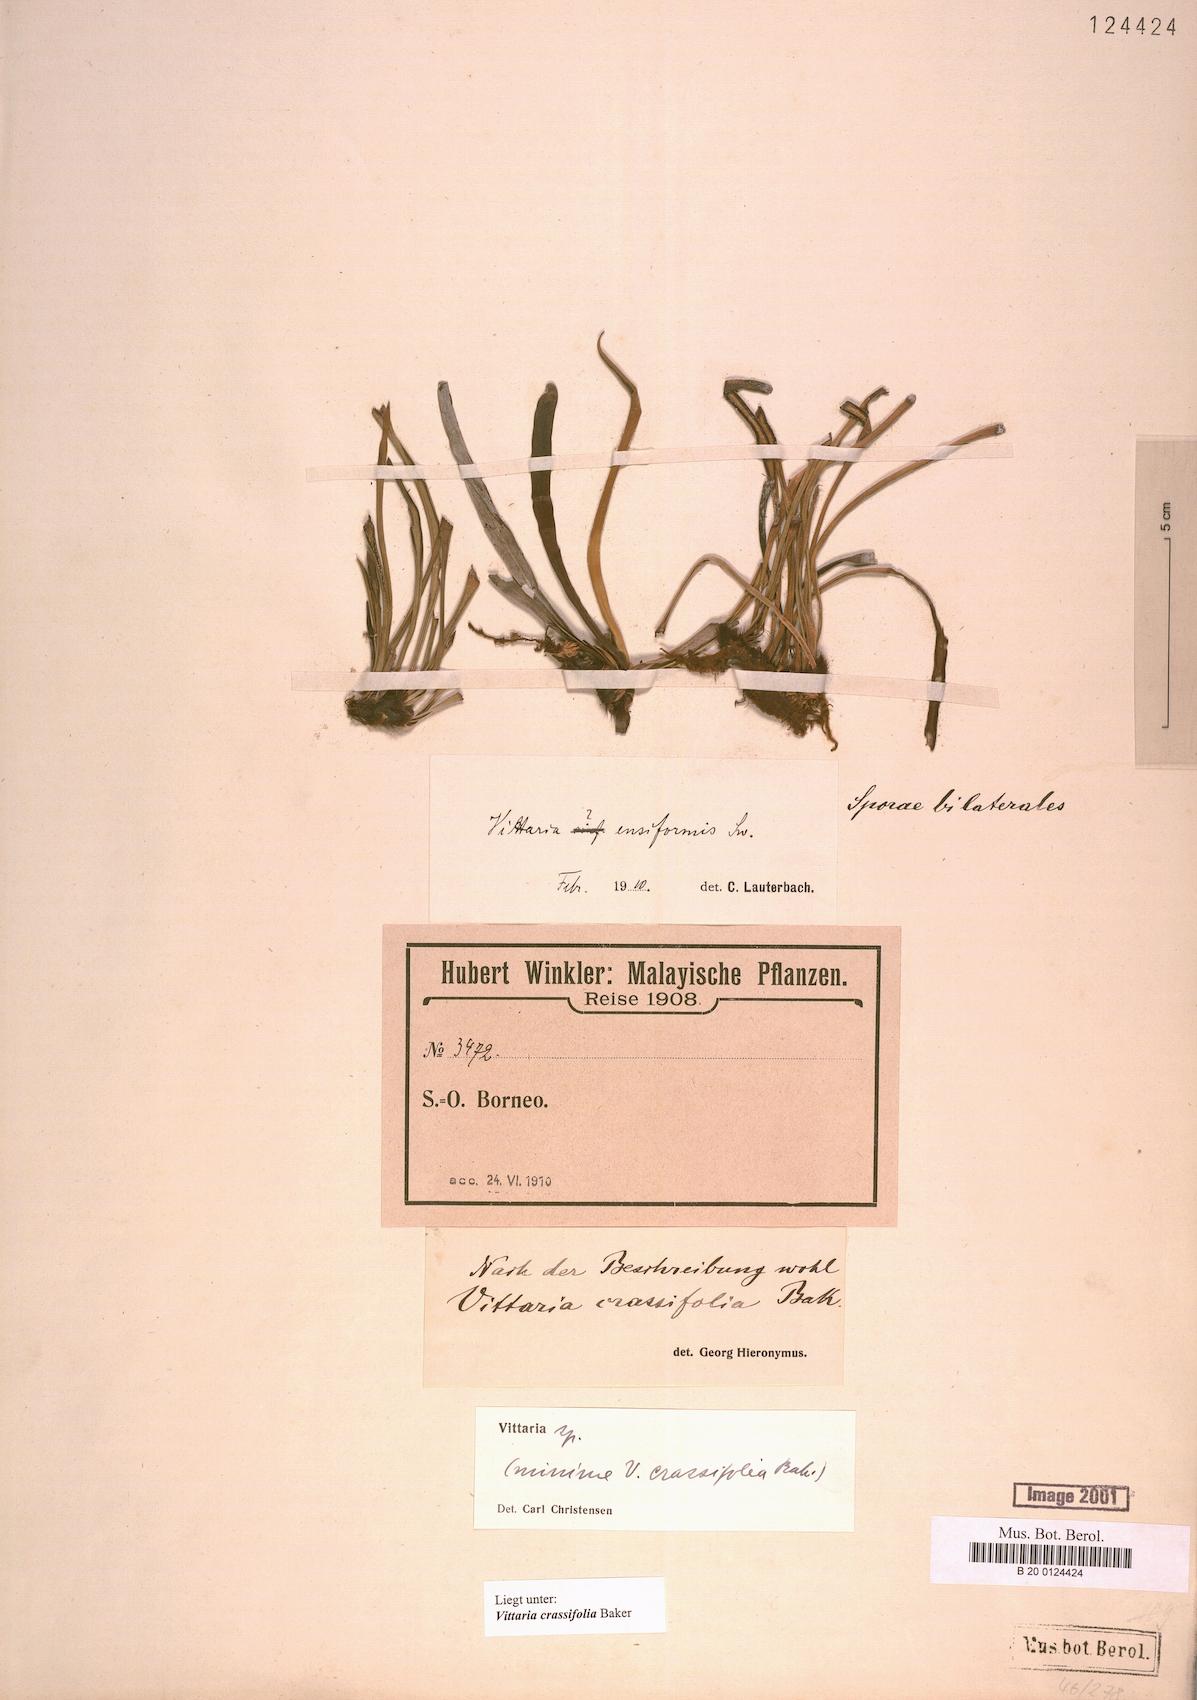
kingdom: Plantae
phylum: Tracheophyta
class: Polypodiopsida
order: Polypodiales
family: Polypodiaceae
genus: Scleroglossum
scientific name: Scleroglossum crassifolium
